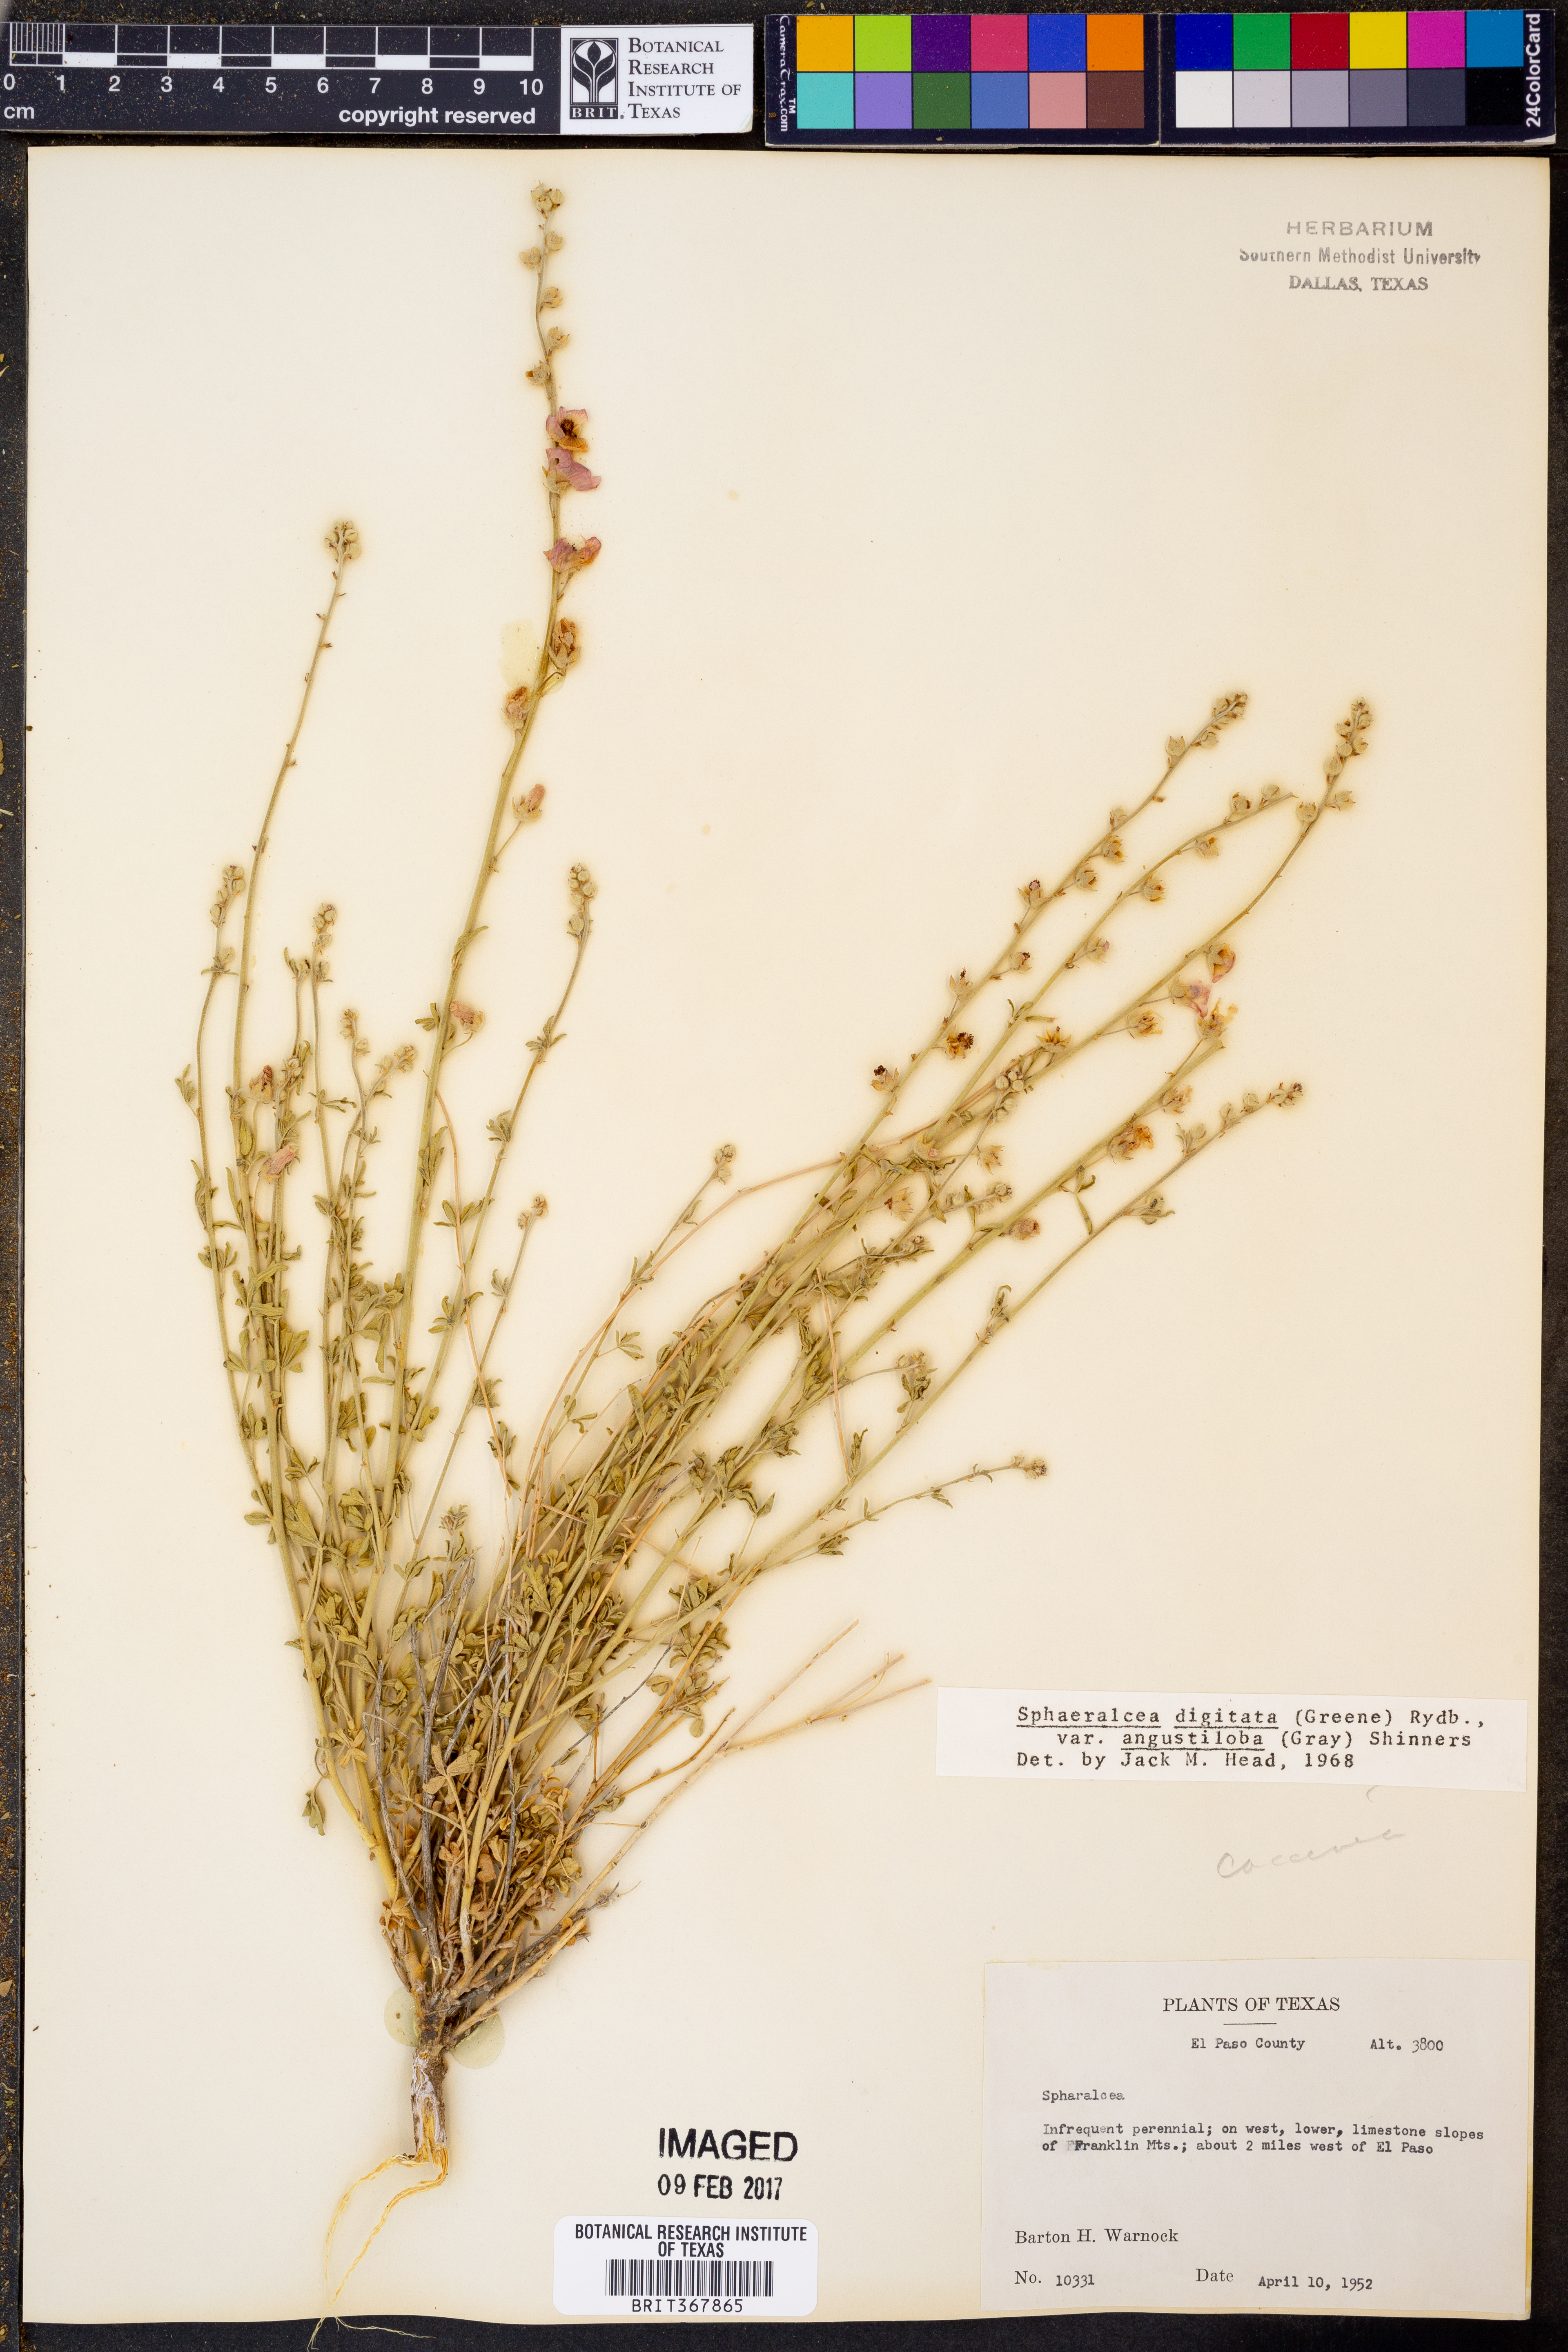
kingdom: Plantae
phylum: Tracheophyta
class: Magnoliopsida
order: Malvales
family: Malvaceae
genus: Sphaeralcea
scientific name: Sphaeralcea digitata
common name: Juniper-gobe-mallow
